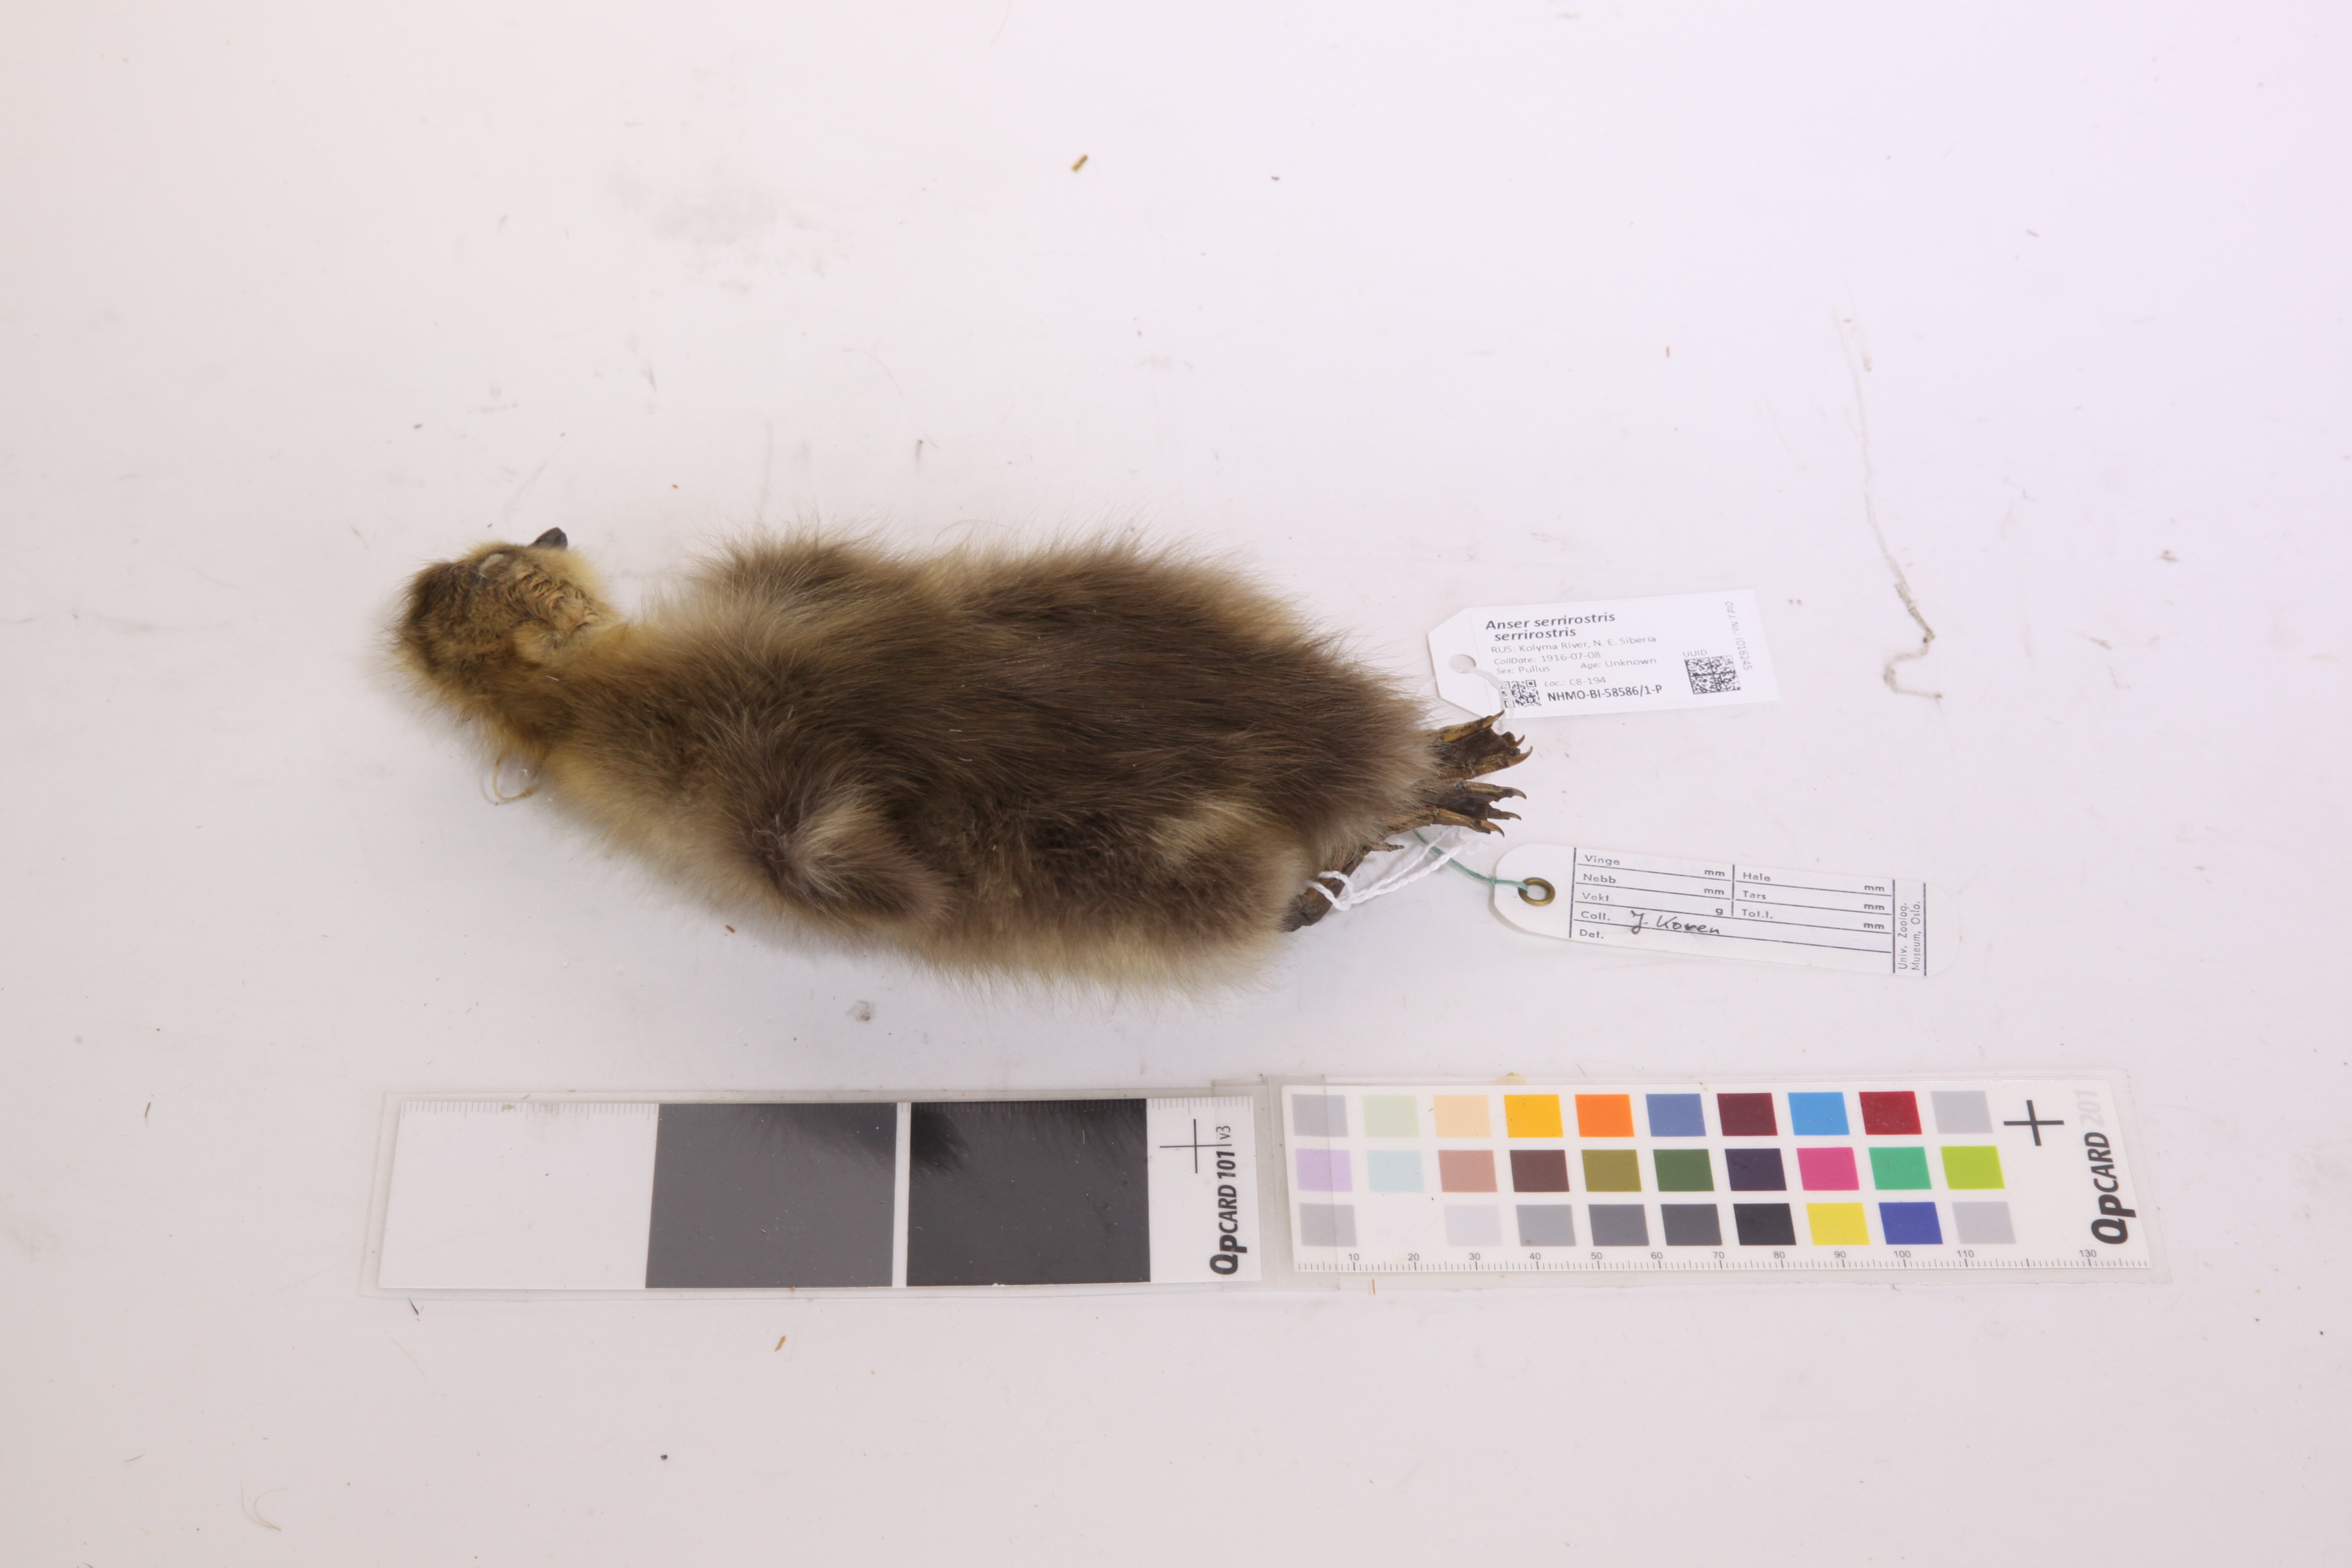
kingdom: Animalia
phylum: Chordata
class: Aves
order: Anseriformes
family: Anatidae
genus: Anser
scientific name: Anser serrirostris
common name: Tundra bean goose
